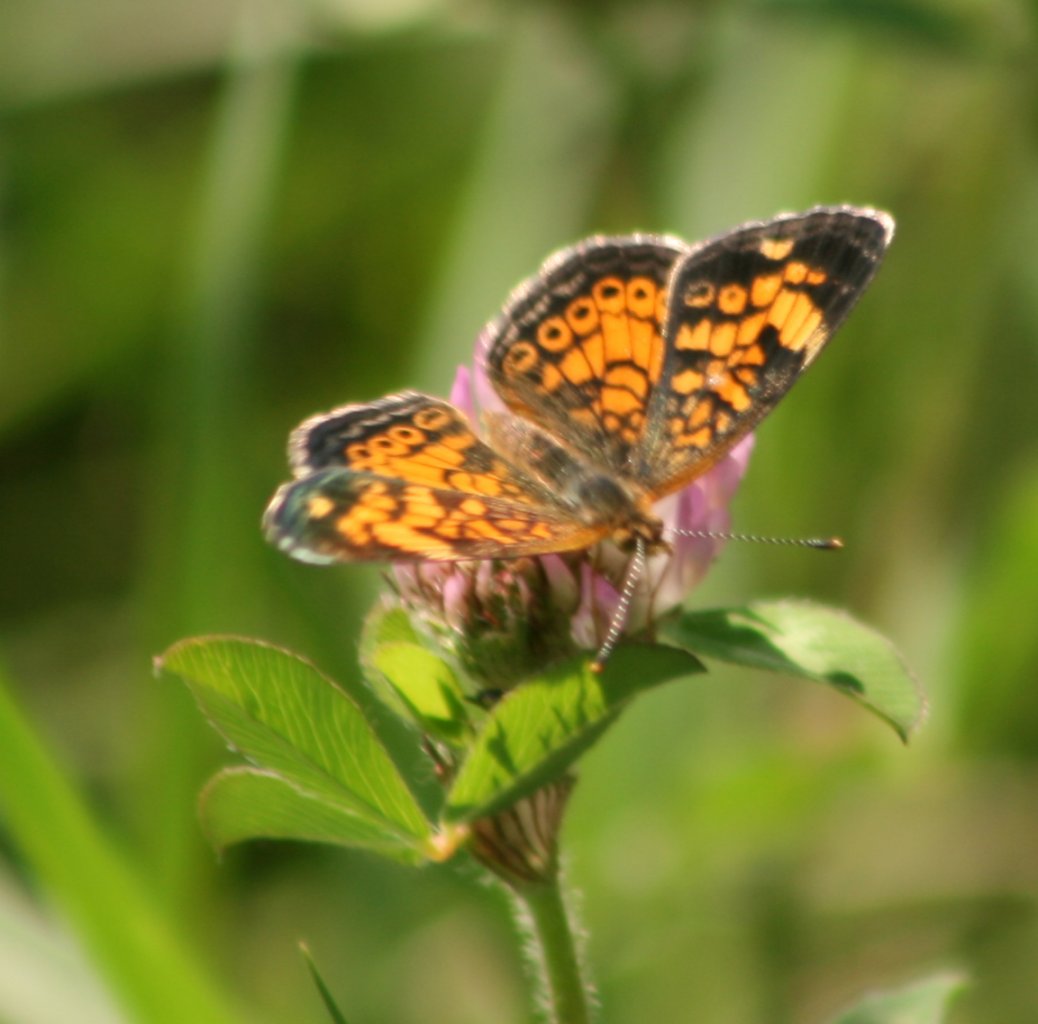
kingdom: Animalia
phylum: Arthropoda
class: Insecta
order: Lepidoptera
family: Nymphalidae
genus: Phyciodes
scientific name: Phyciodes tharos
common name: Northern Crescent
